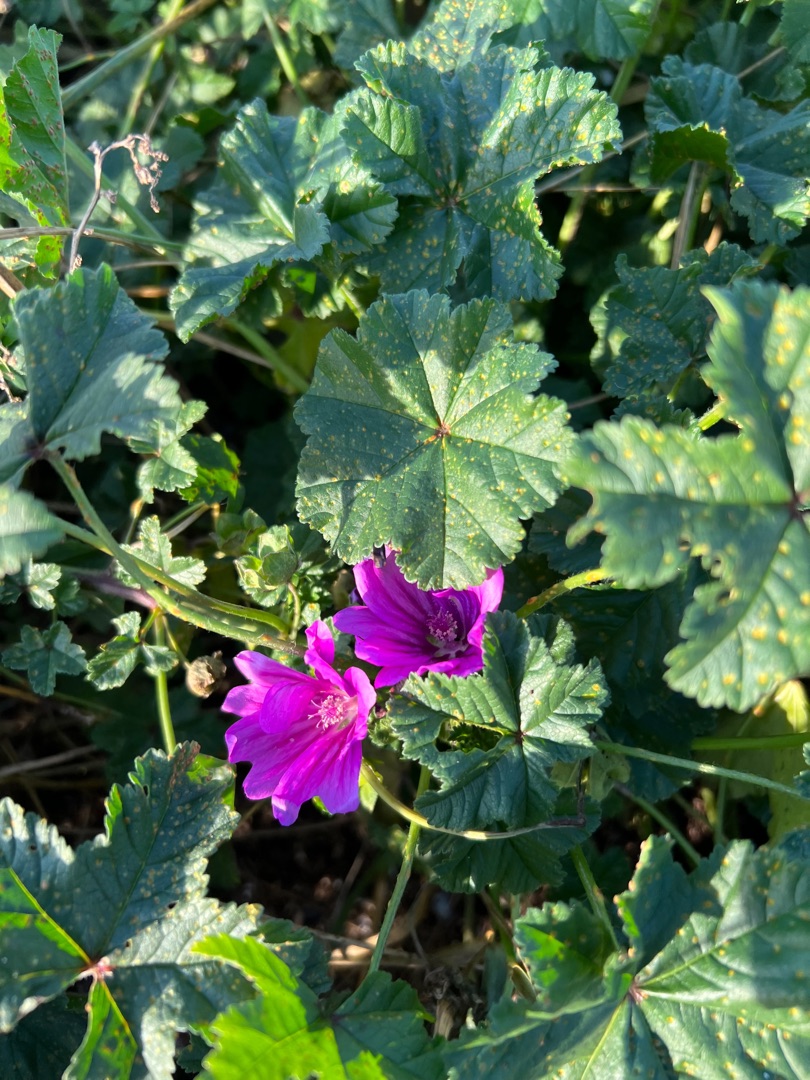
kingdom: Plantae
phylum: Tracheophyta
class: Magnoliopsida
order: Malvales
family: Malvaceae
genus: Malva
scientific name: Malva sylvestris
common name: Almindelig katost
